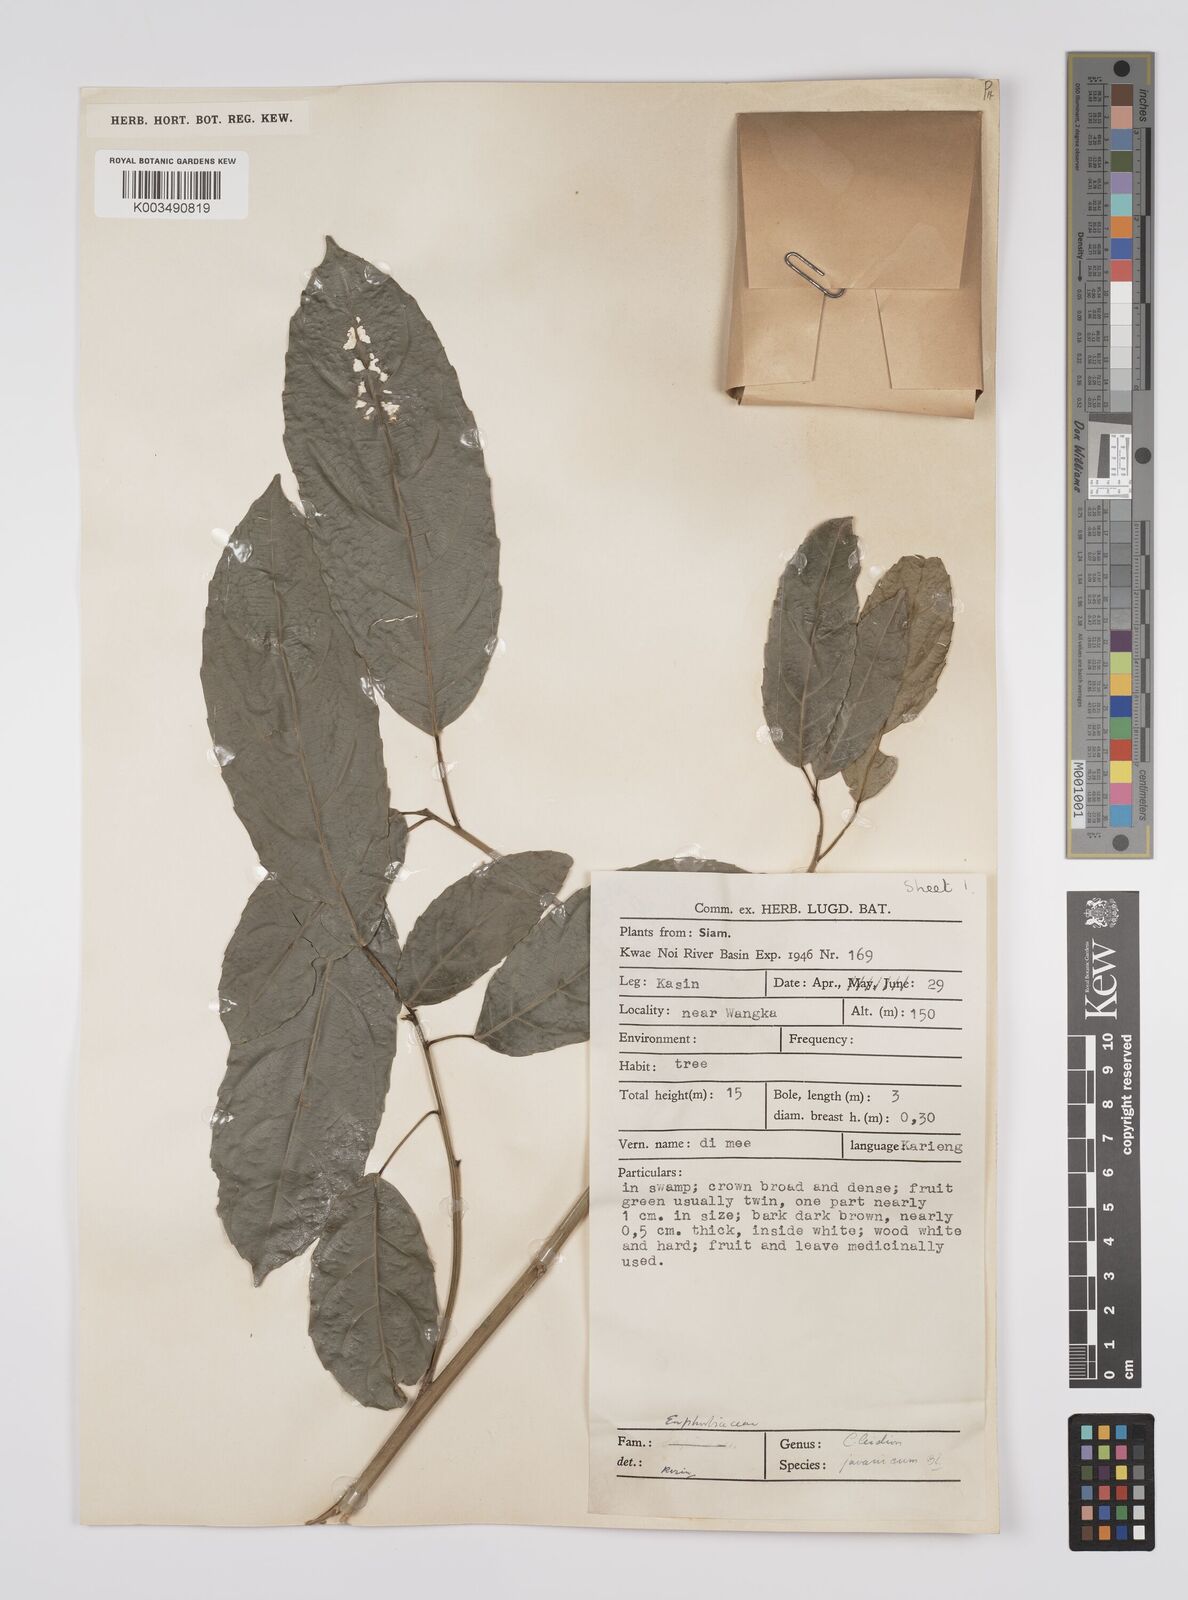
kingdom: Plantae
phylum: Tracheophyta
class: Magnoliopsida
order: Malpighiales
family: Euphorbiaceae
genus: Acalypha
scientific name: Acalypha spiciflora
